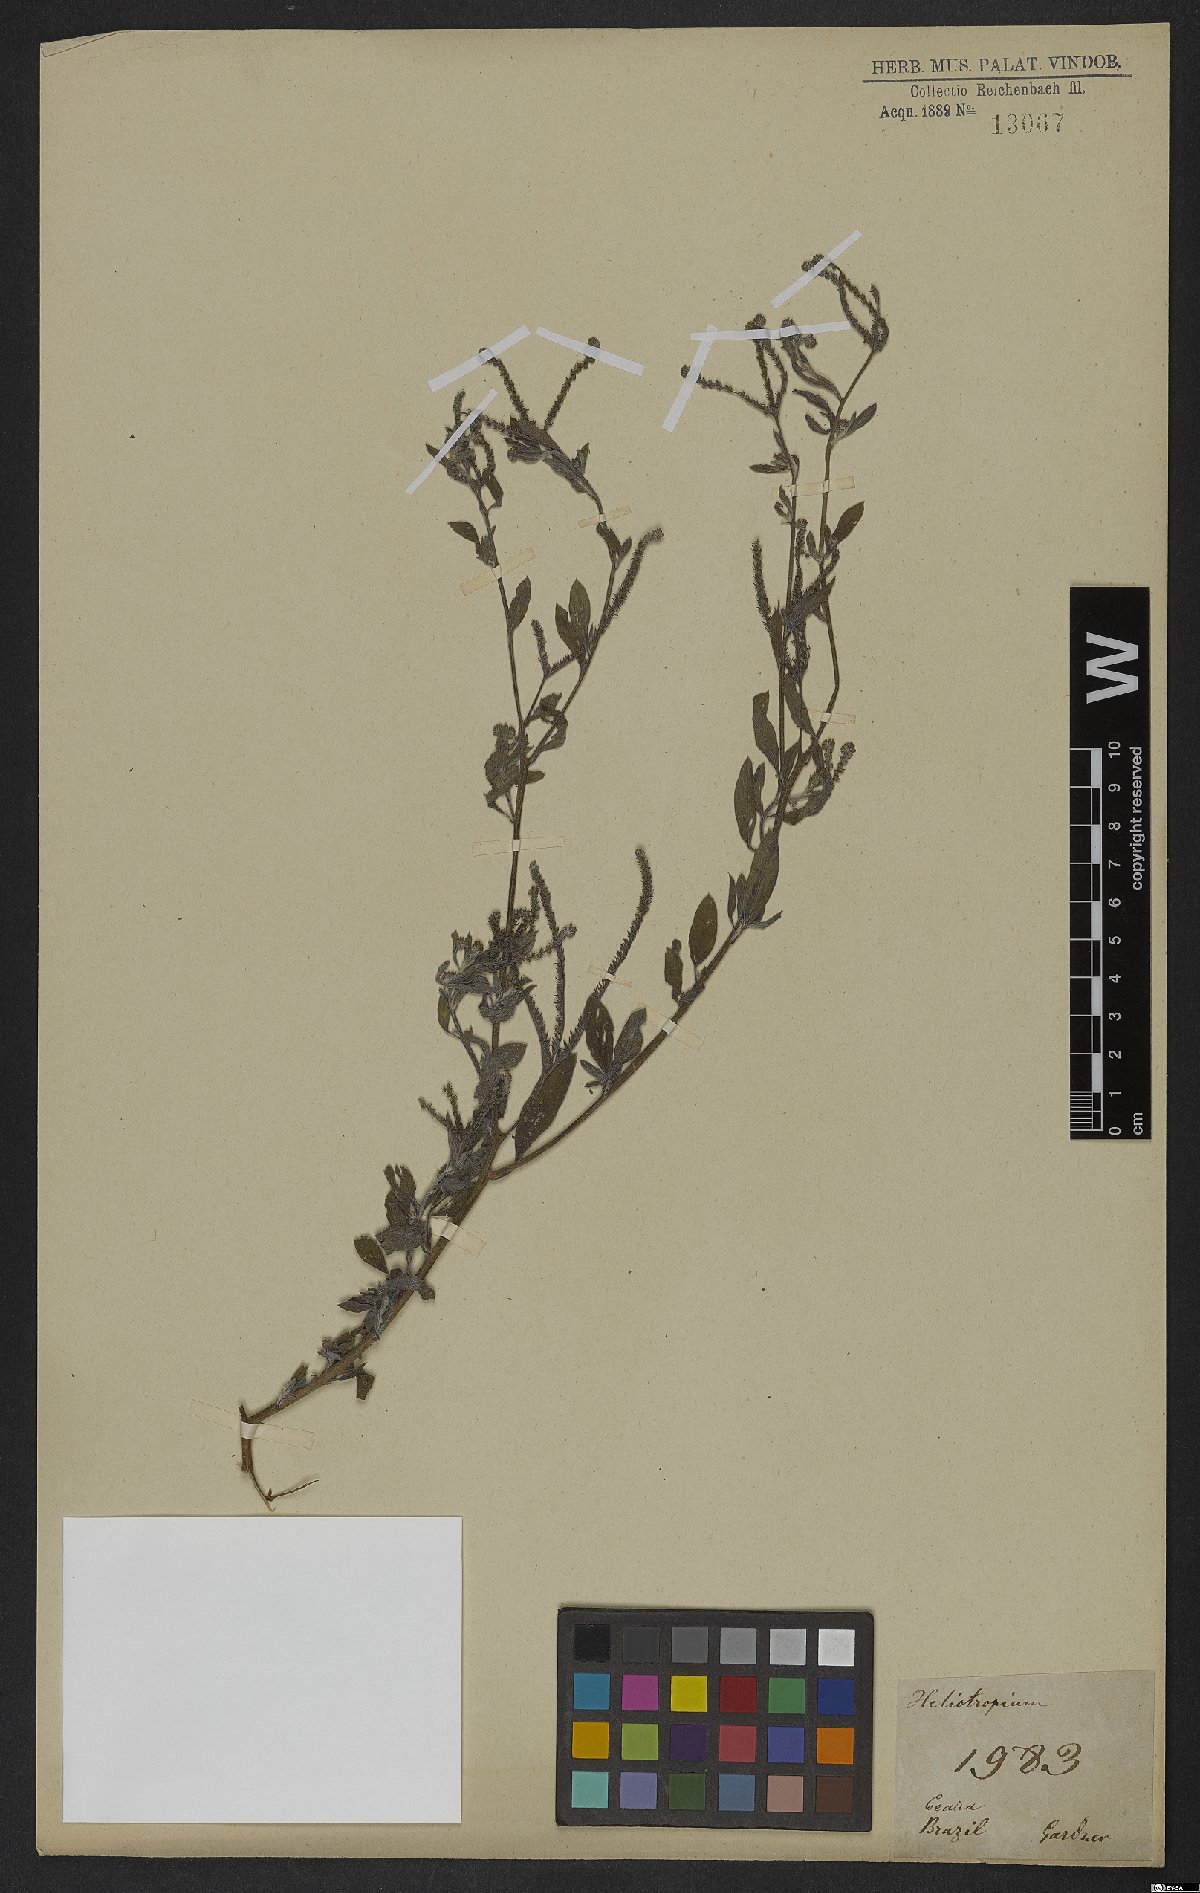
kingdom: Plantae
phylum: Tracheophyta
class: Magnoliopsida
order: Boraginales
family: Heliotropiaceae
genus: Heliotropium
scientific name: Heliotropium
